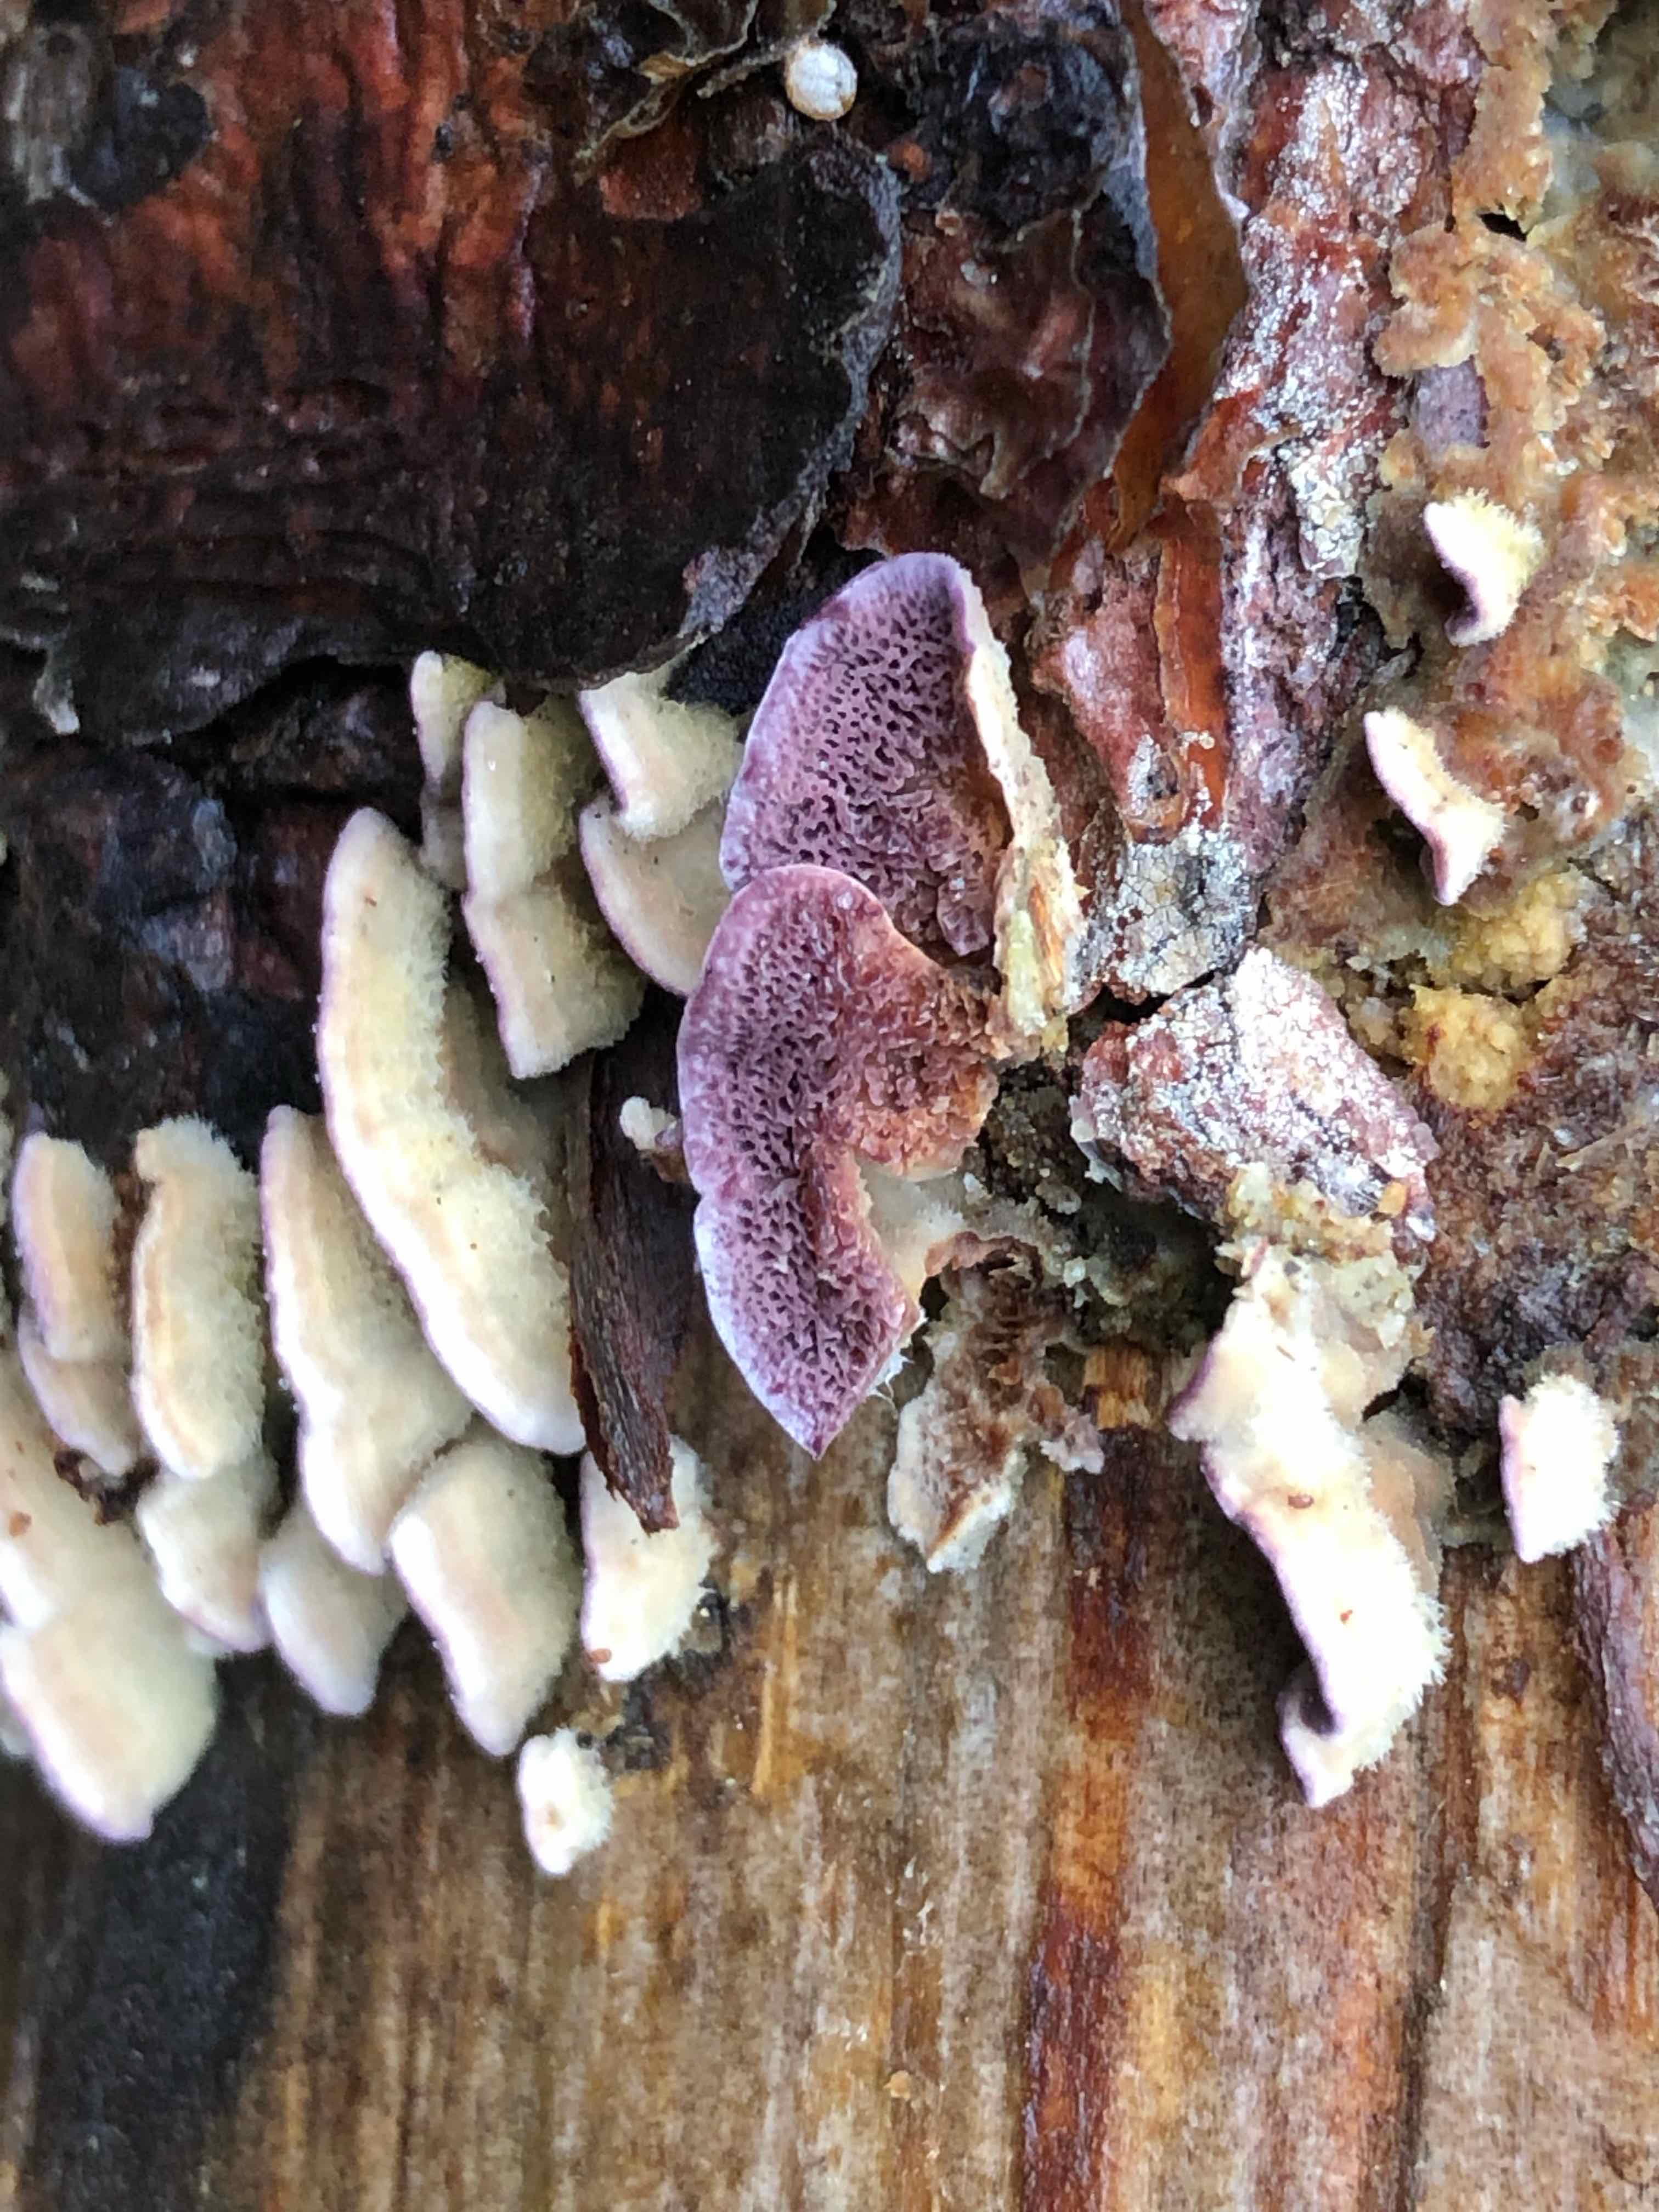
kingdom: Fungi
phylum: Basidiomycota
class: Agaricomycetes
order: Hymenochaetales
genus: Trichaptum
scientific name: Trichaptum abietinum
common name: almindelig violporesvamp
